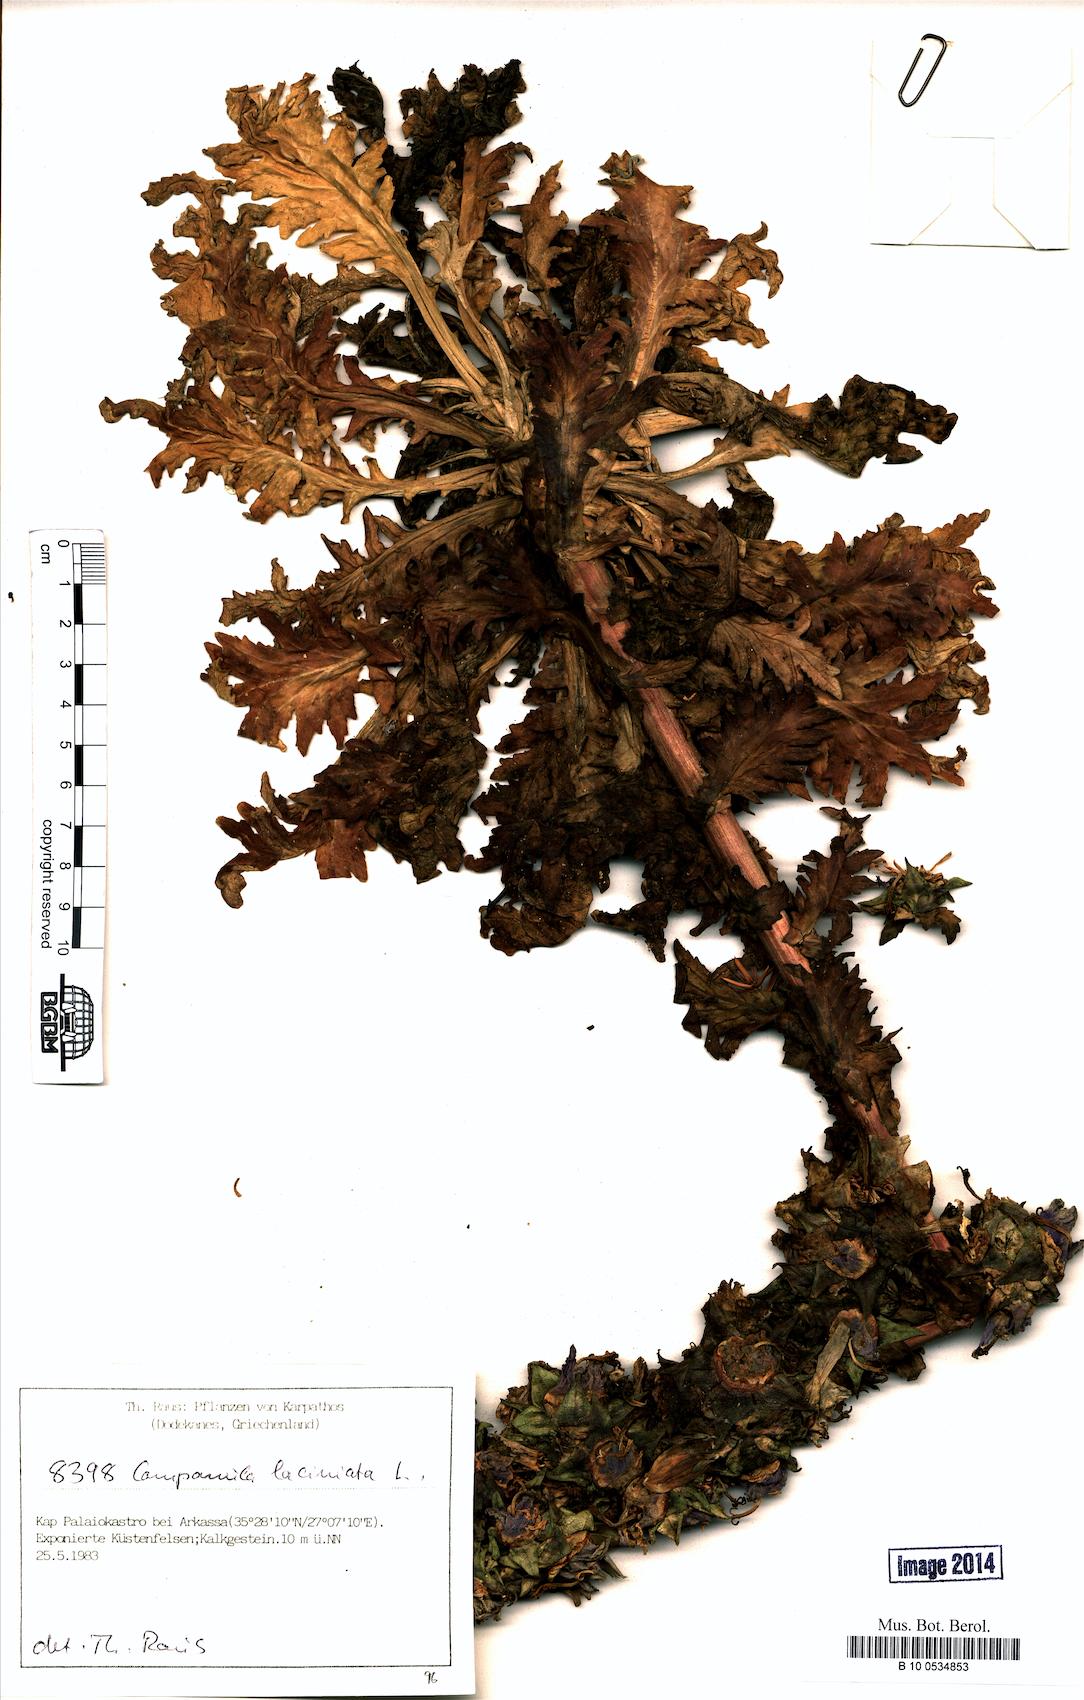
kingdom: Plantae
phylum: Tracheophyta
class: Magnoliopsida
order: Asterales
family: Campanulaceae
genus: Campanula
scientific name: Campanula laciniata
